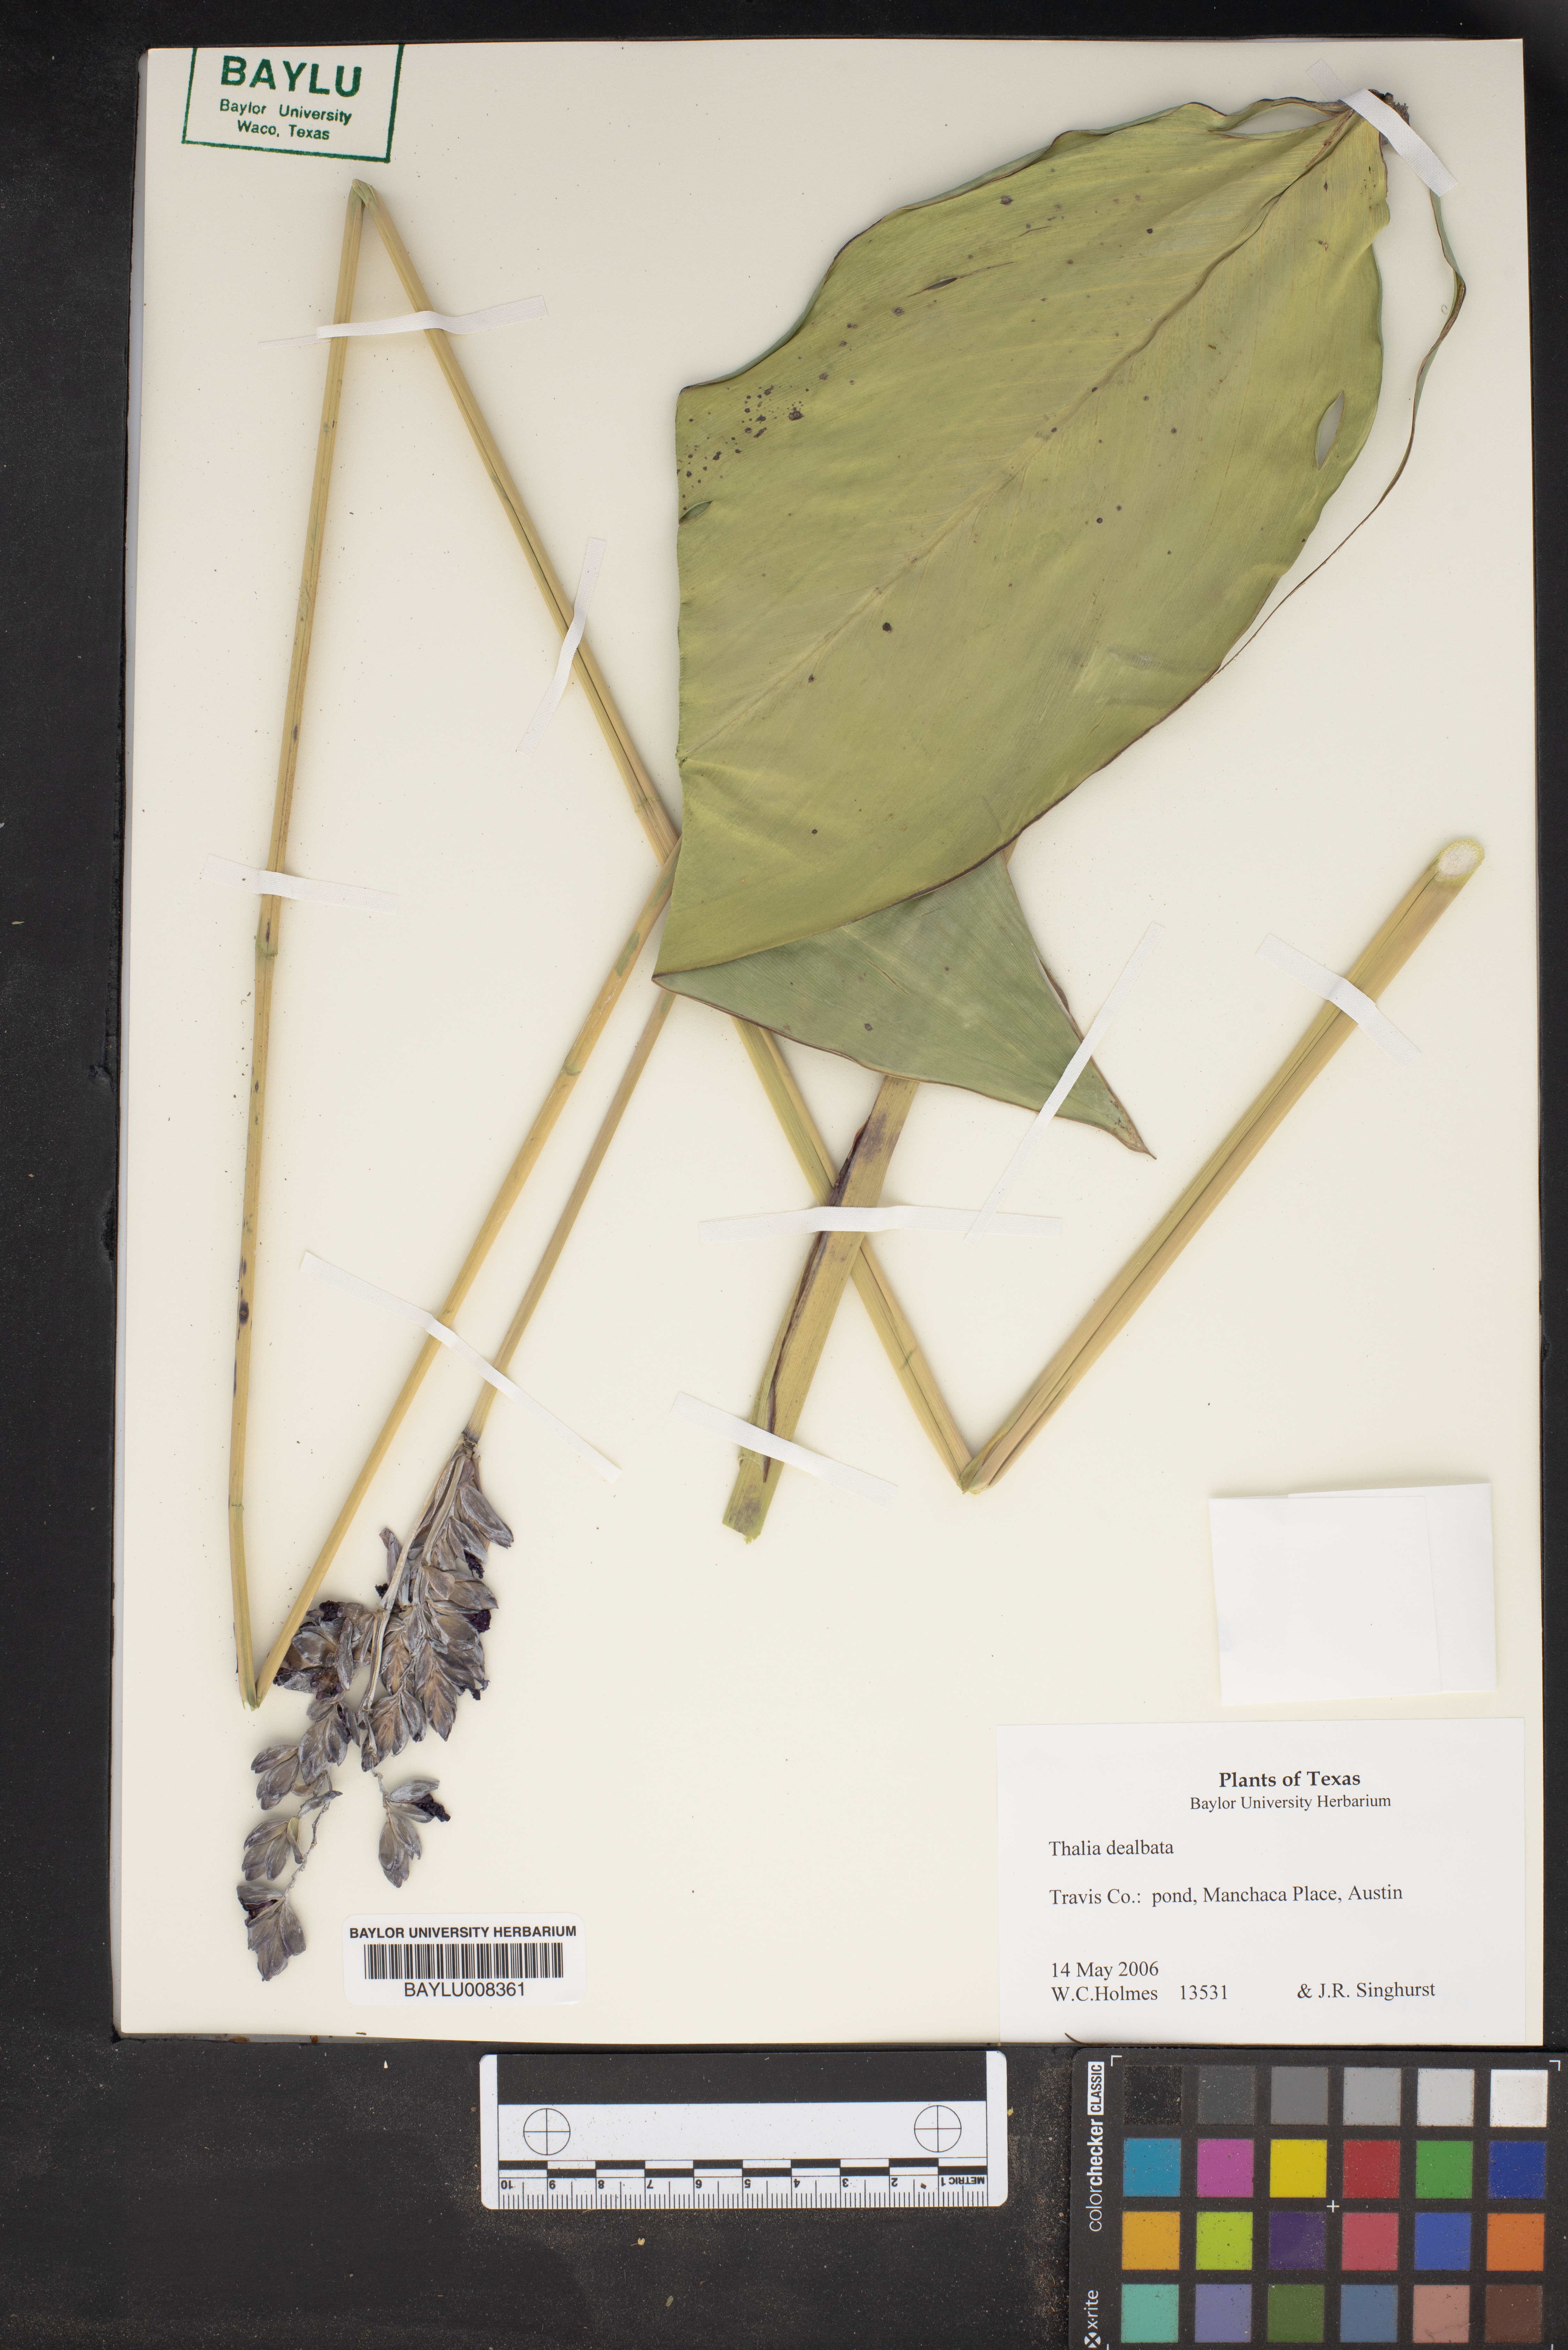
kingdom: Plantae
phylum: Tracheophyta
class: Liliopsida
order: Zingiberales
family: Marantaceae
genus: Thalia
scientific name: Thalia dealbata
